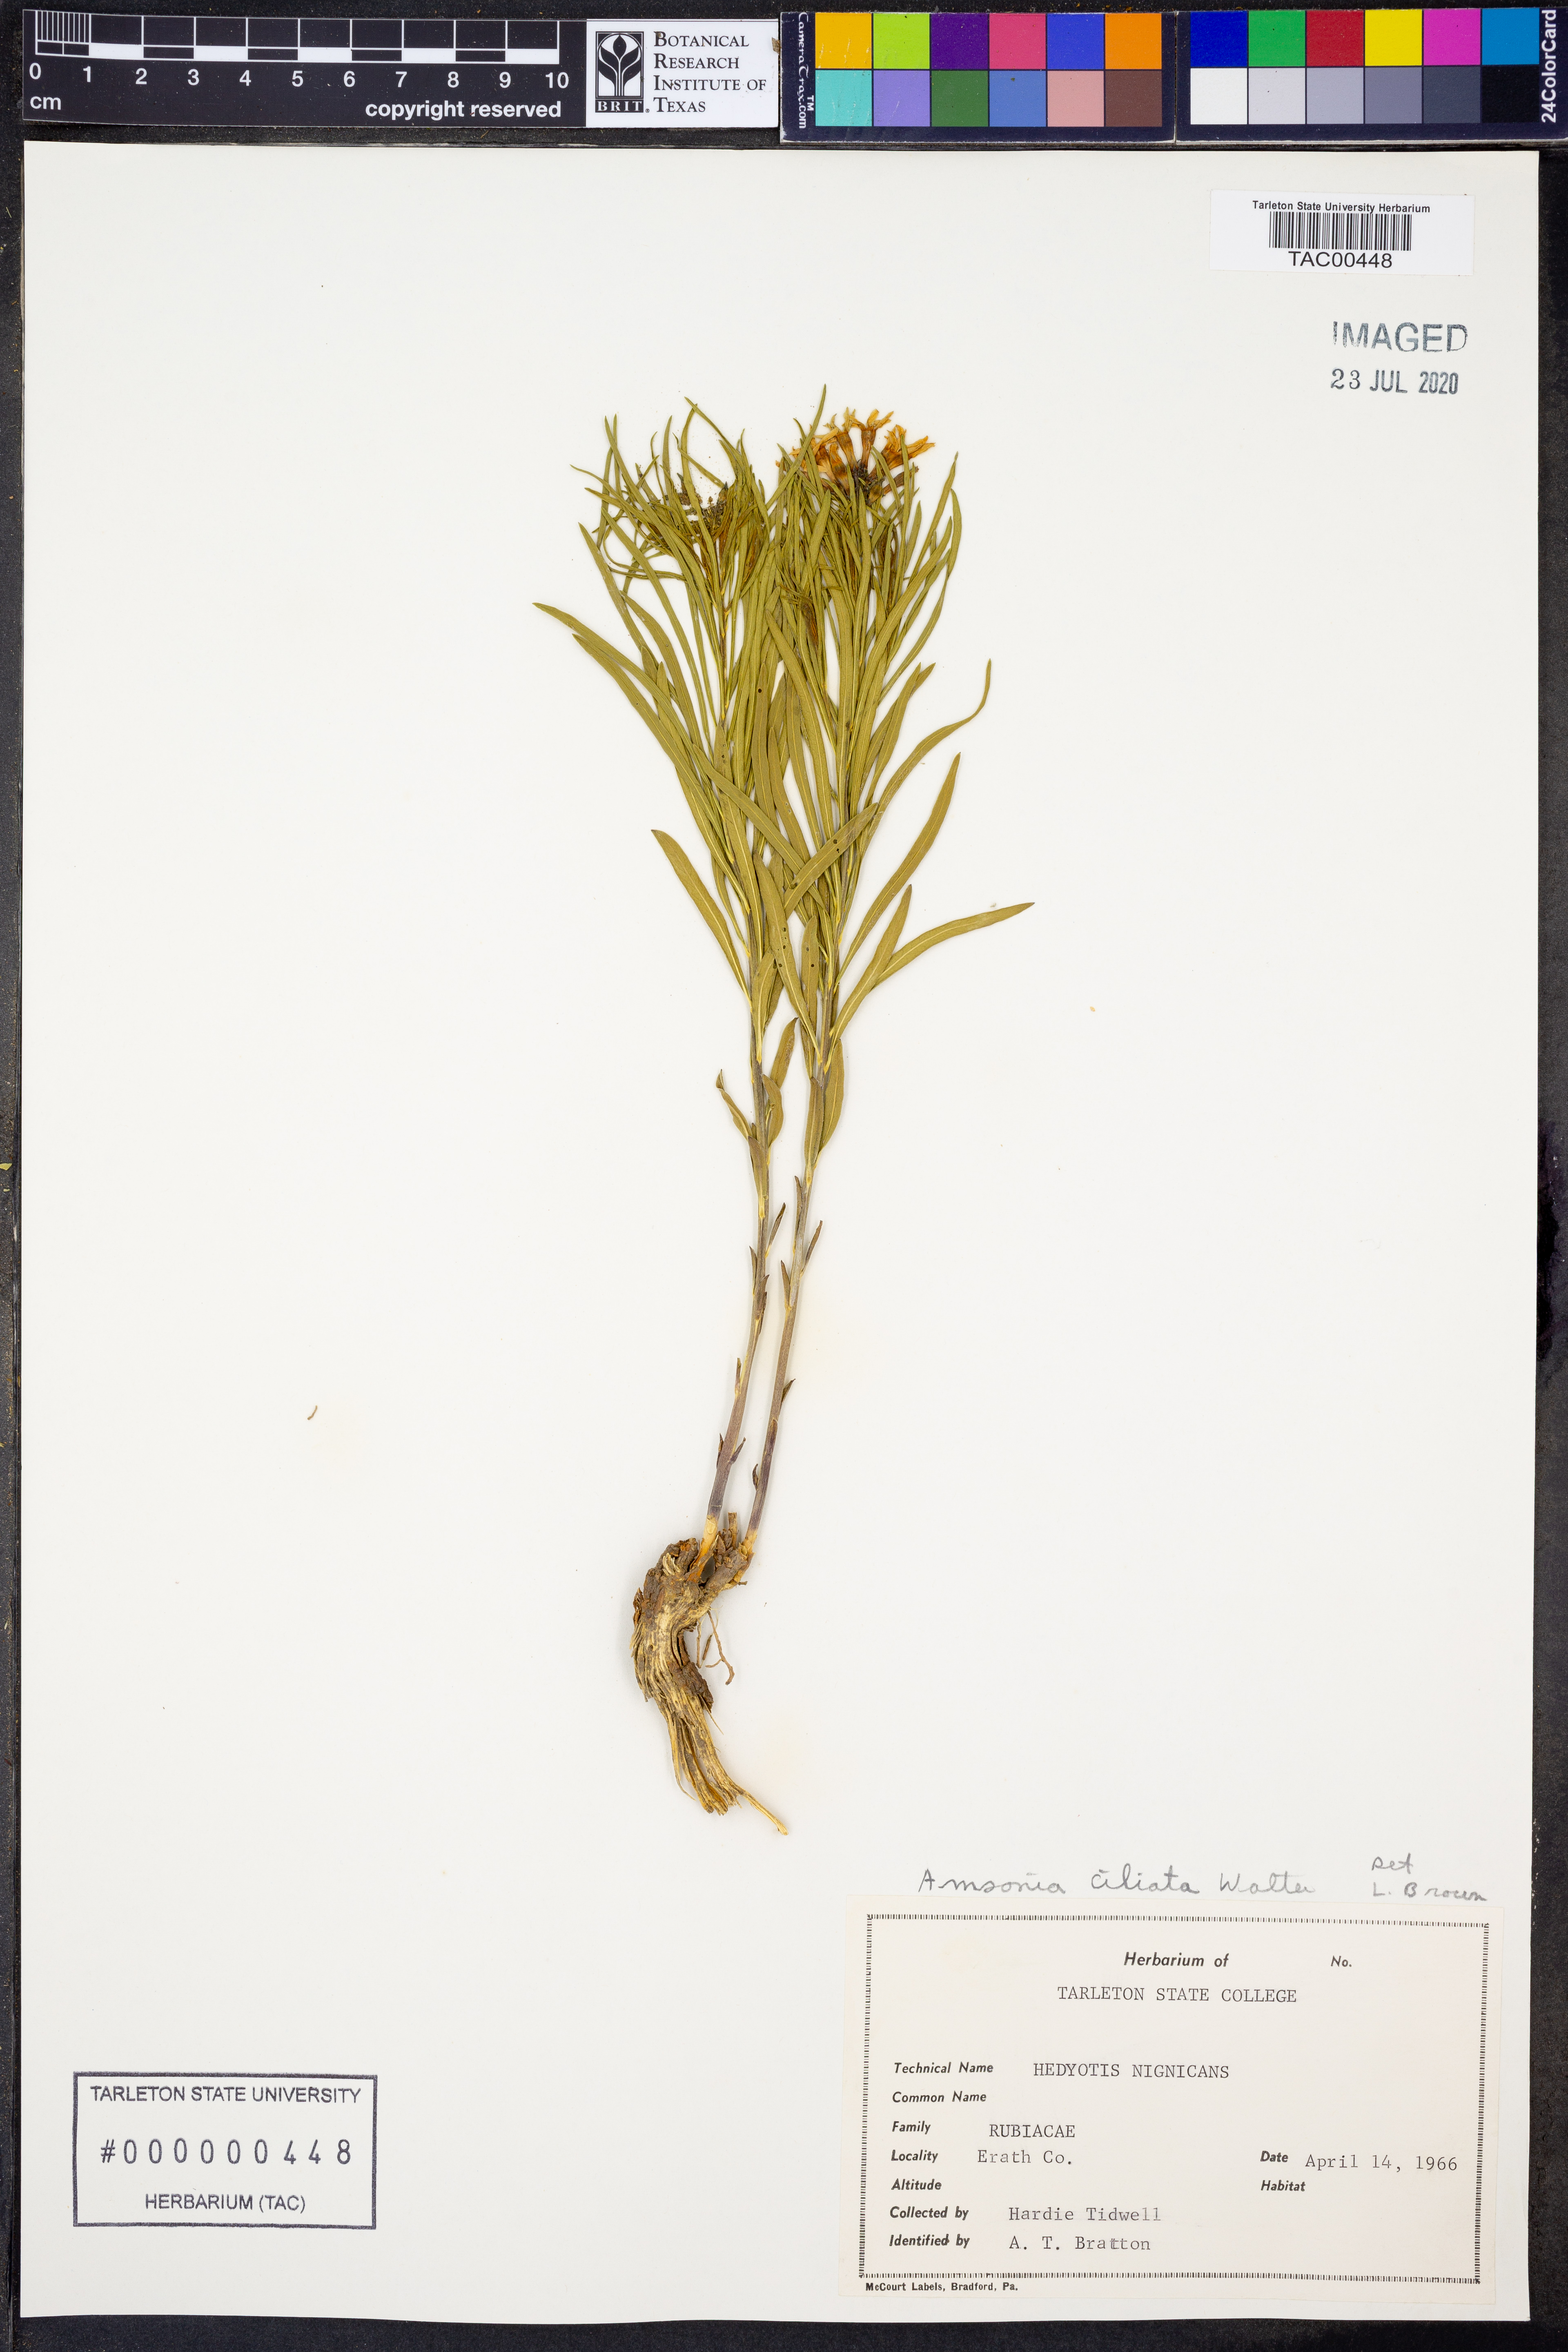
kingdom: Plantae
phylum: Tracheophyta
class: Magnoliopsida
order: Gentianales
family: Apocynaceae
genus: Amsonia
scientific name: Amsonia ciliata
